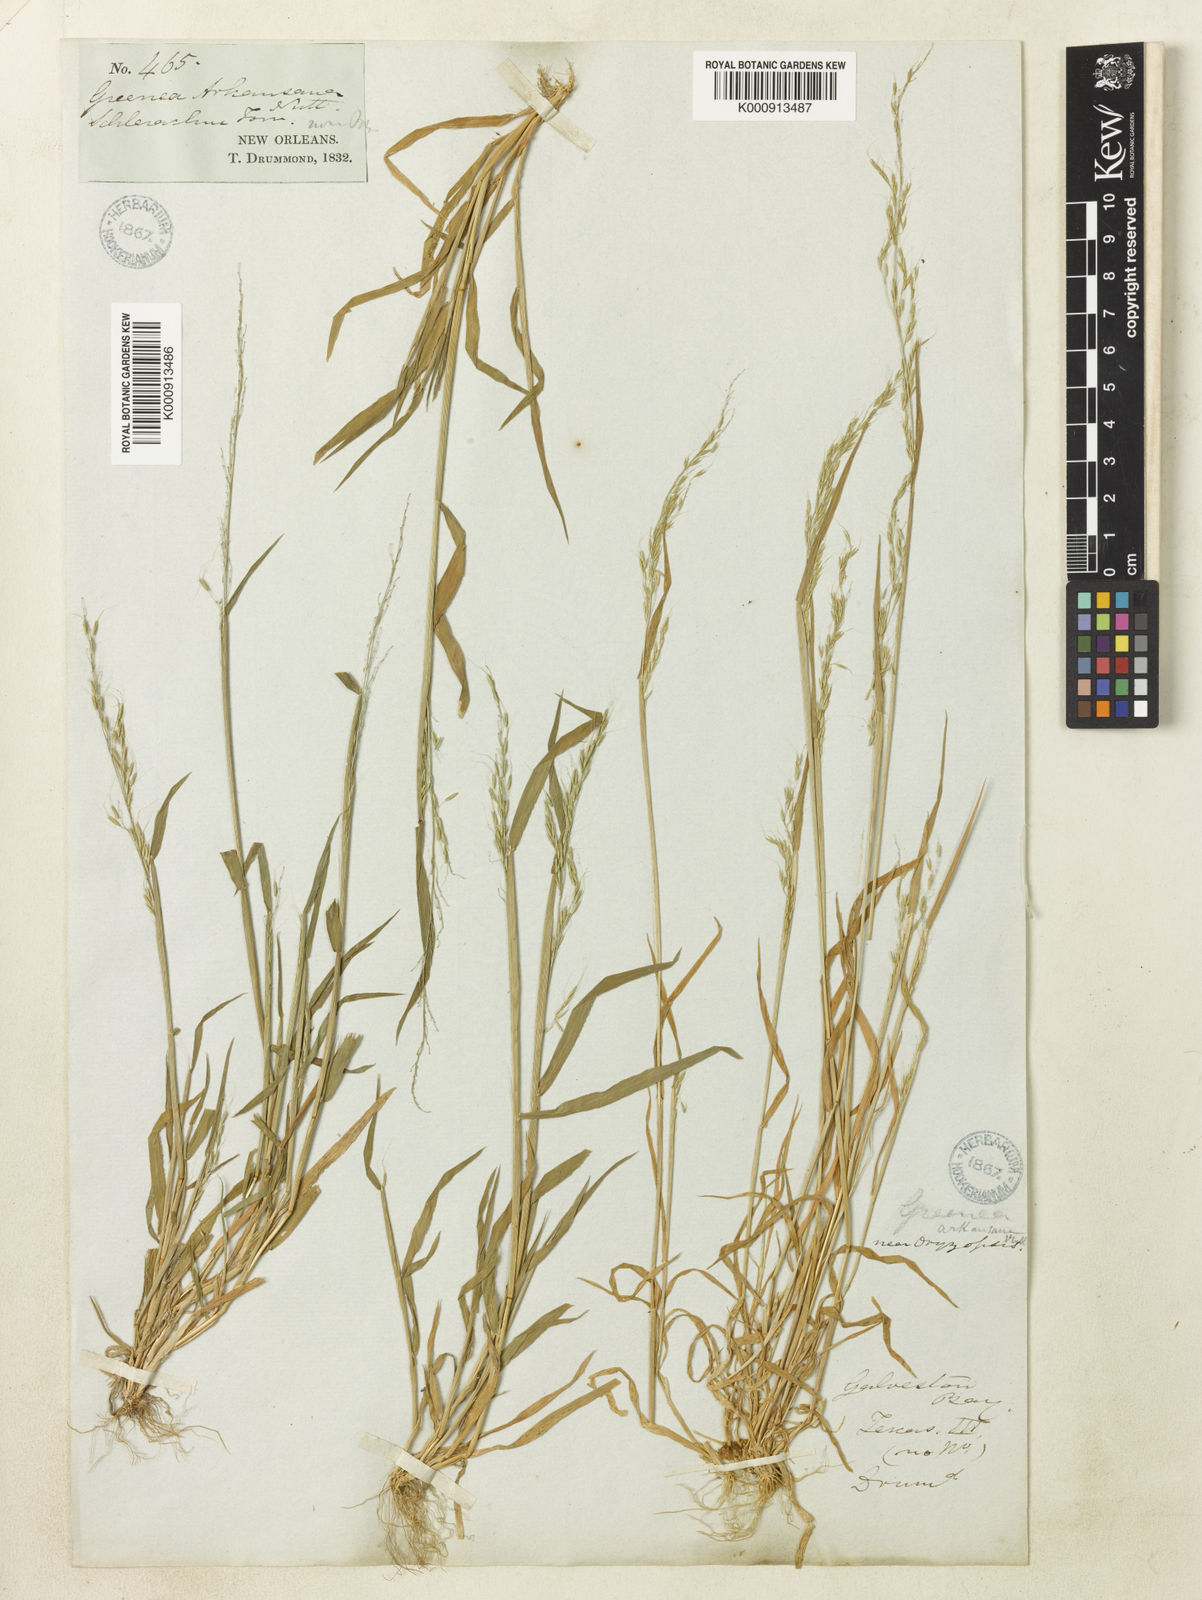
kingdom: Plantae
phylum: Tracheophyta
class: Liliopsida
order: Poales
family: Poaceae
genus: Limnodea
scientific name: Limnodea arkansana
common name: Ozark-grass
